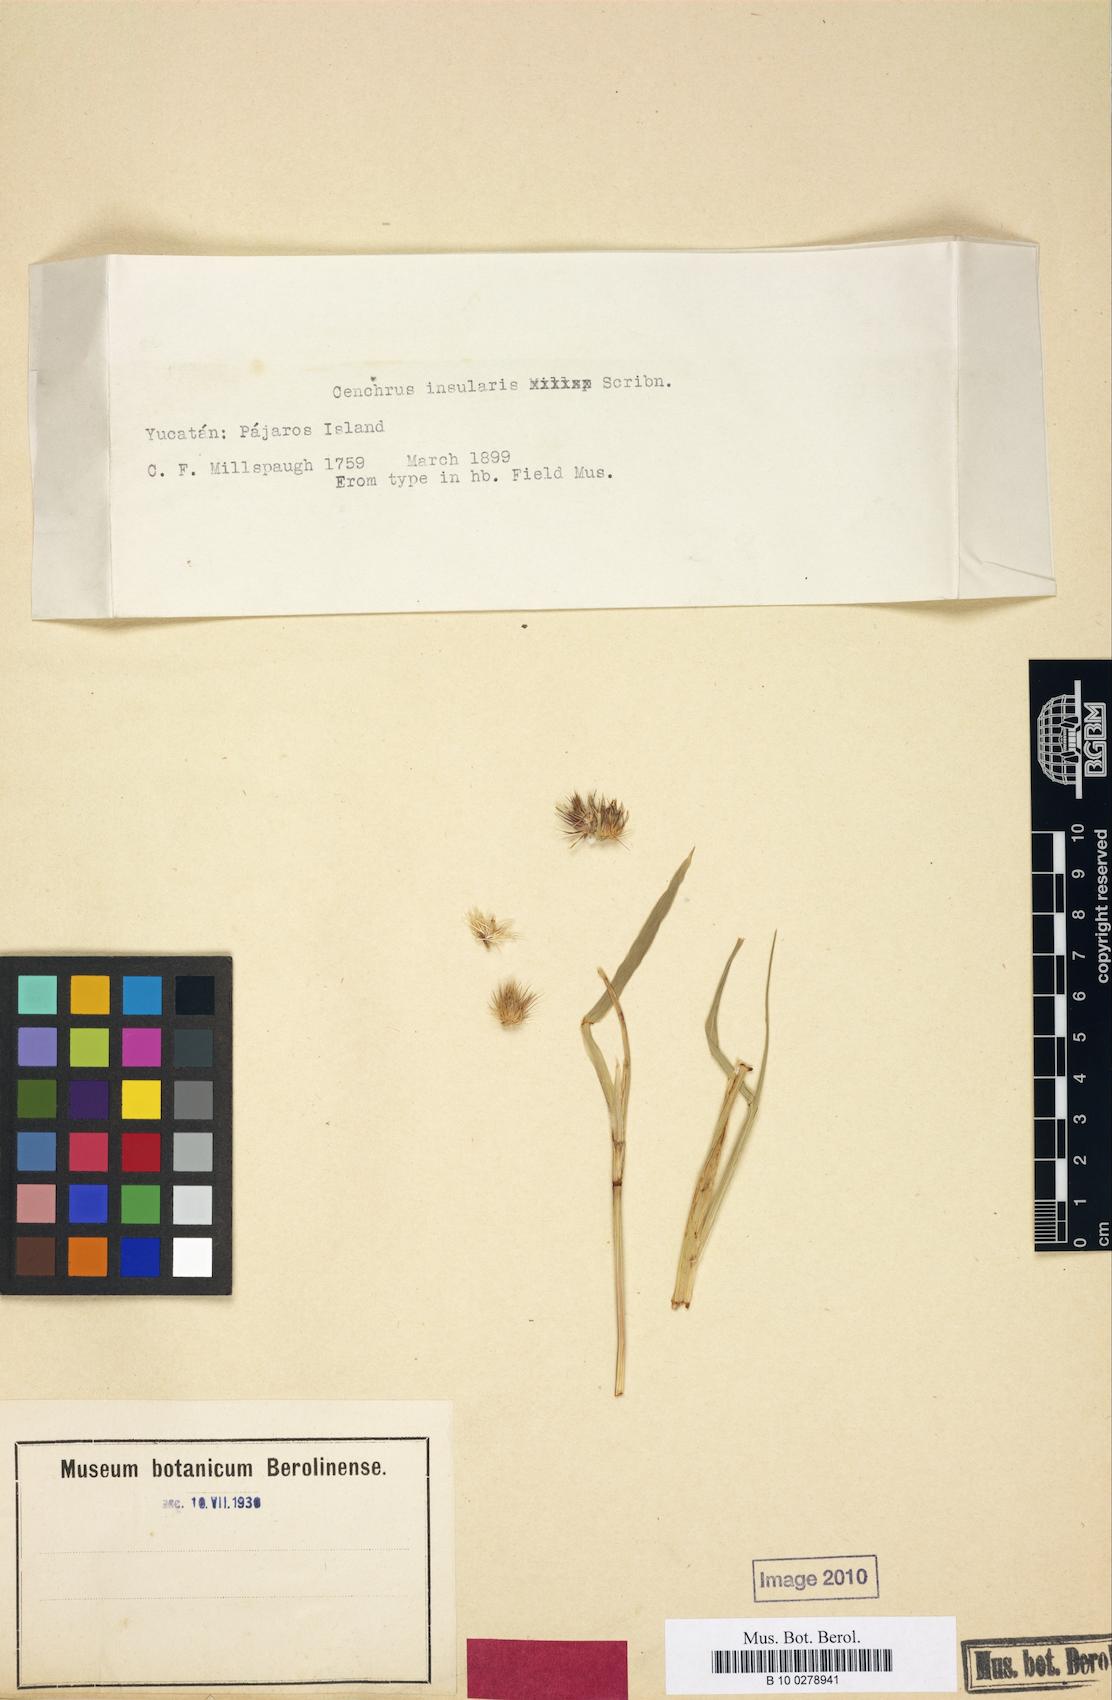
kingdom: Plantae
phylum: Tracheophyta
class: Liliopsida
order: Poales
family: Poaceae
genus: Cenchrus
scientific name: Cenchrus echinatus
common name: Southern sandbur
